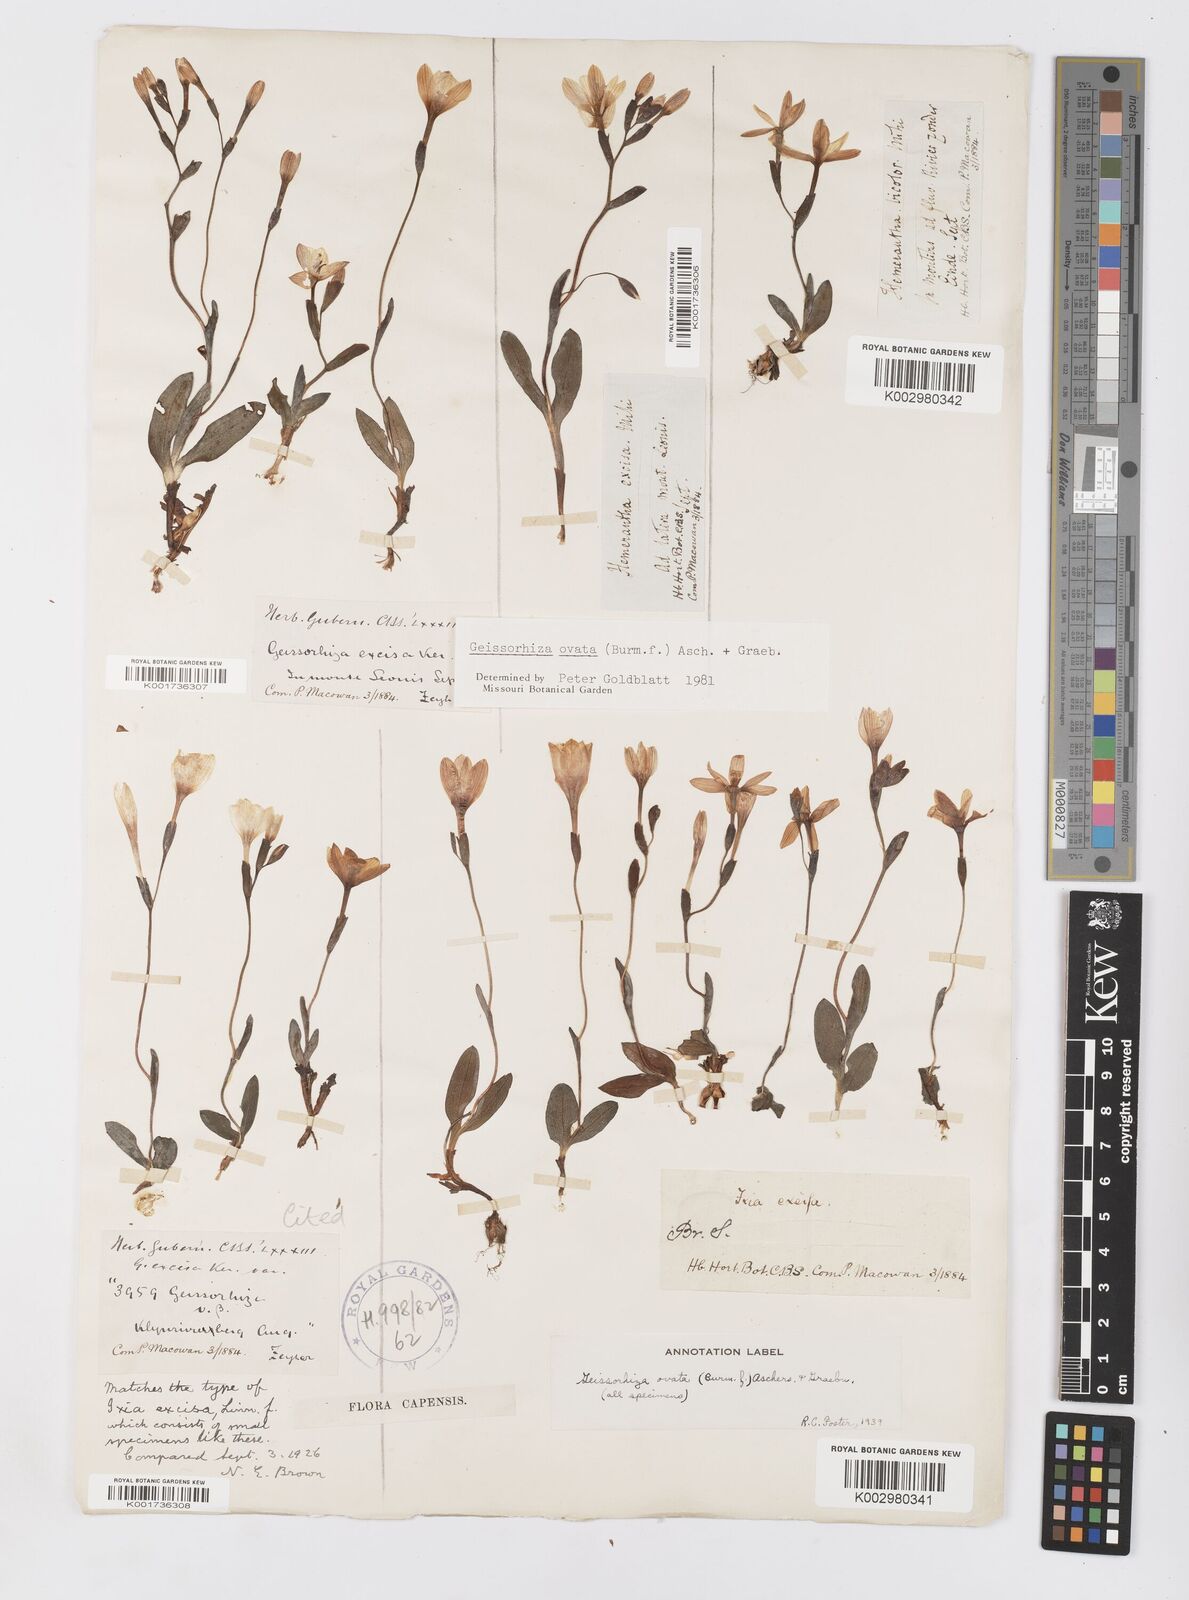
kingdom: Plantae
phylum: Tracheophyta
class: Liliopsida
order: Asparagales
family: Iridaceae
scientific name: Iridaceae
